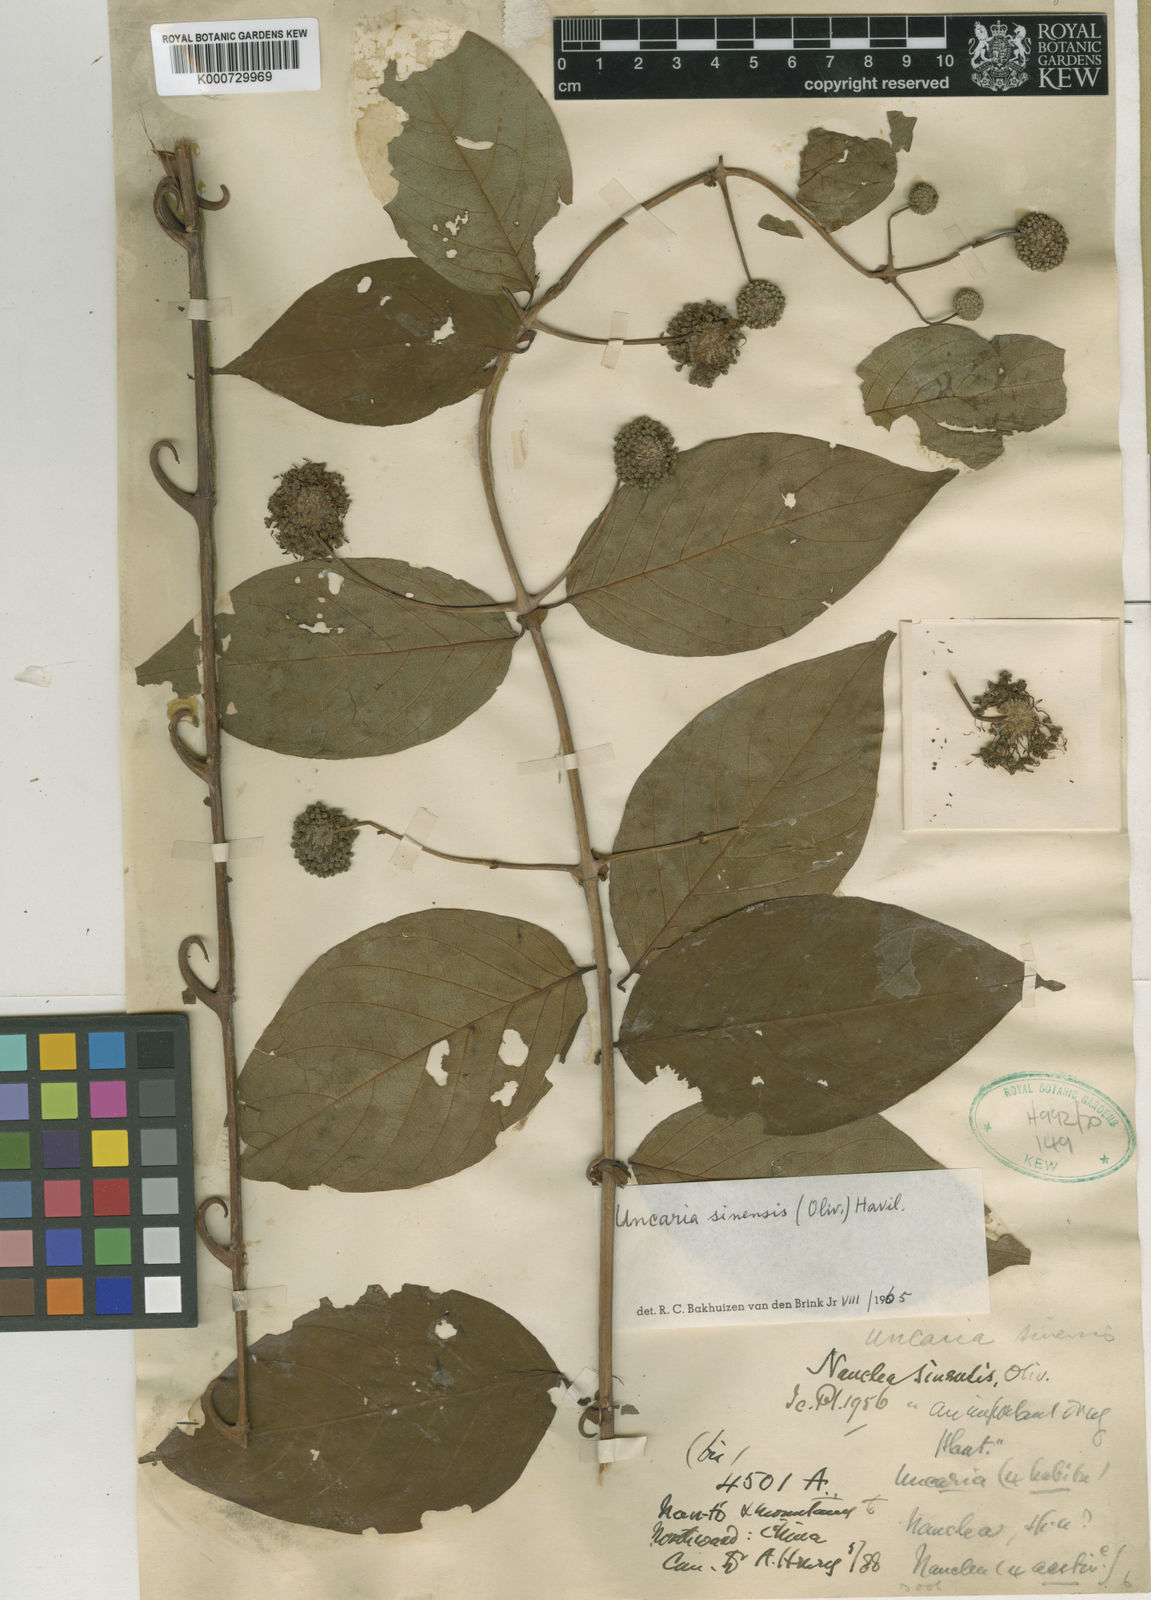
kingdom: Plantae
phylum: Tracheophyta
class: Magnoliopsida
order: Gentianales
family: Rubiaceae
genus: Uncaria
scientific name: Uncaria sinensis
